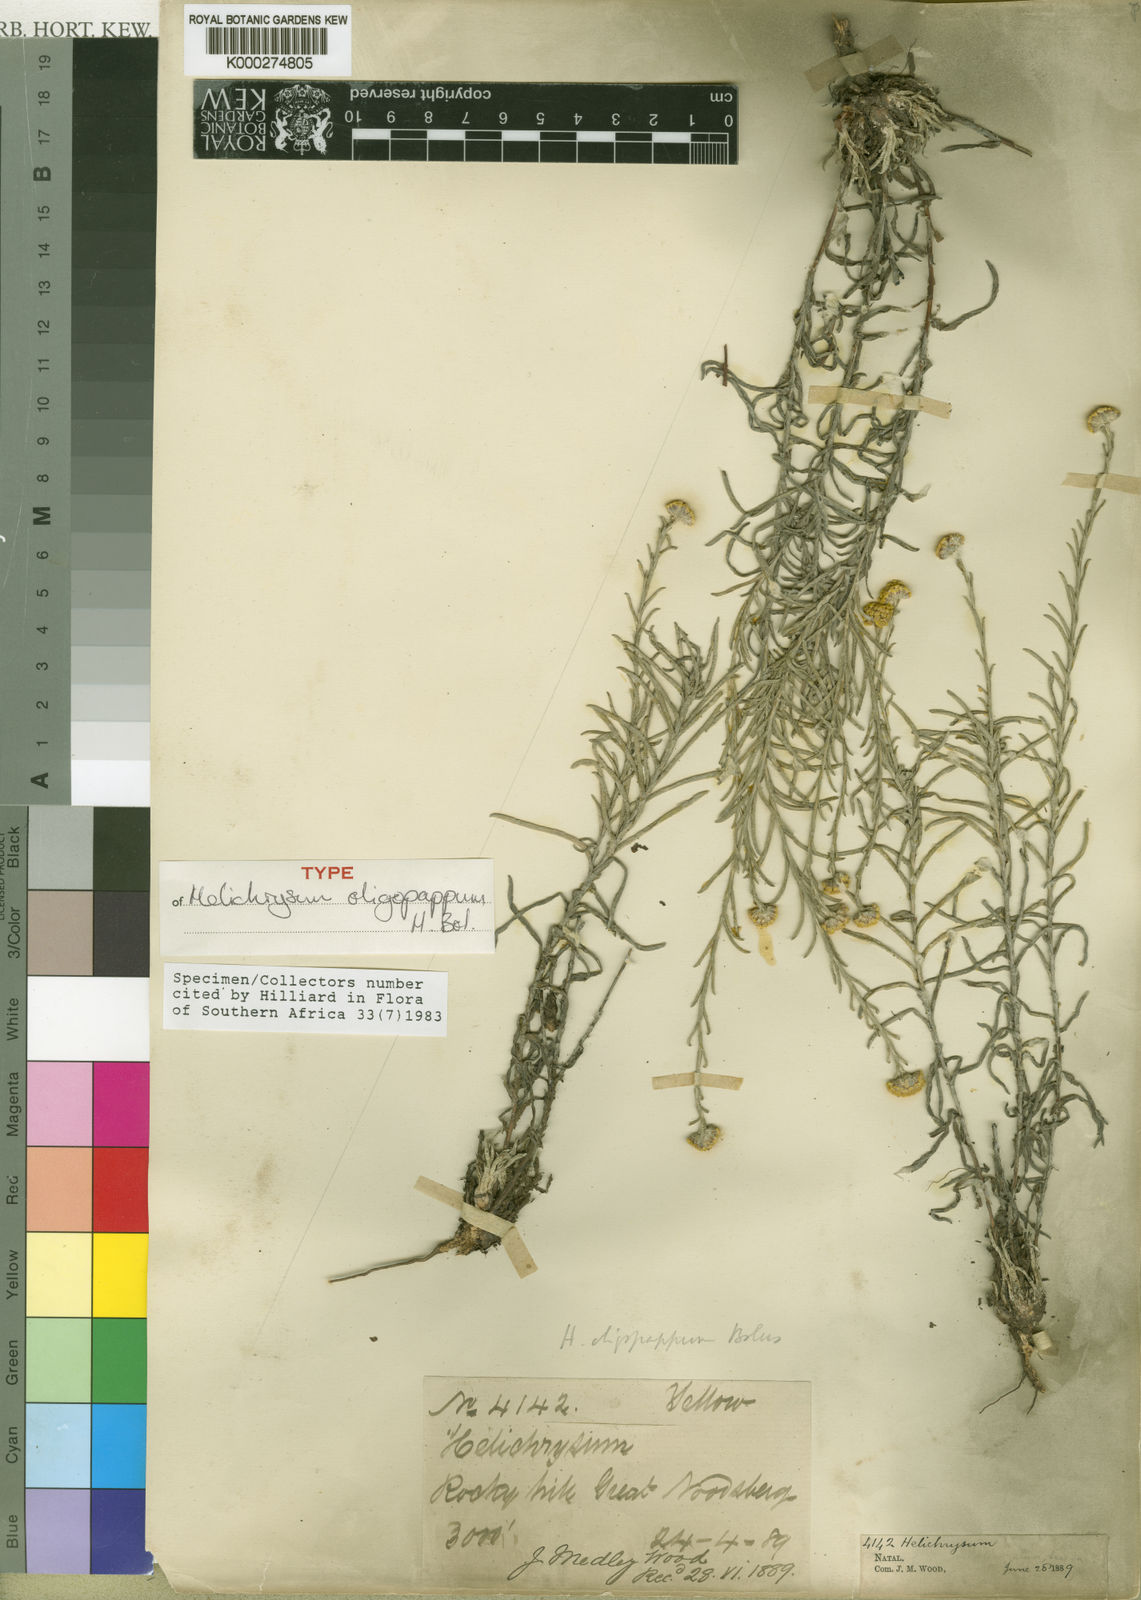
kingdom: Plantae
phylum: Tracheophyta
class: Magnoliopsida
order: Asterales
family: Asteraceae
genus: Helichrysum
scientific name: Helichrysum oligopappum
